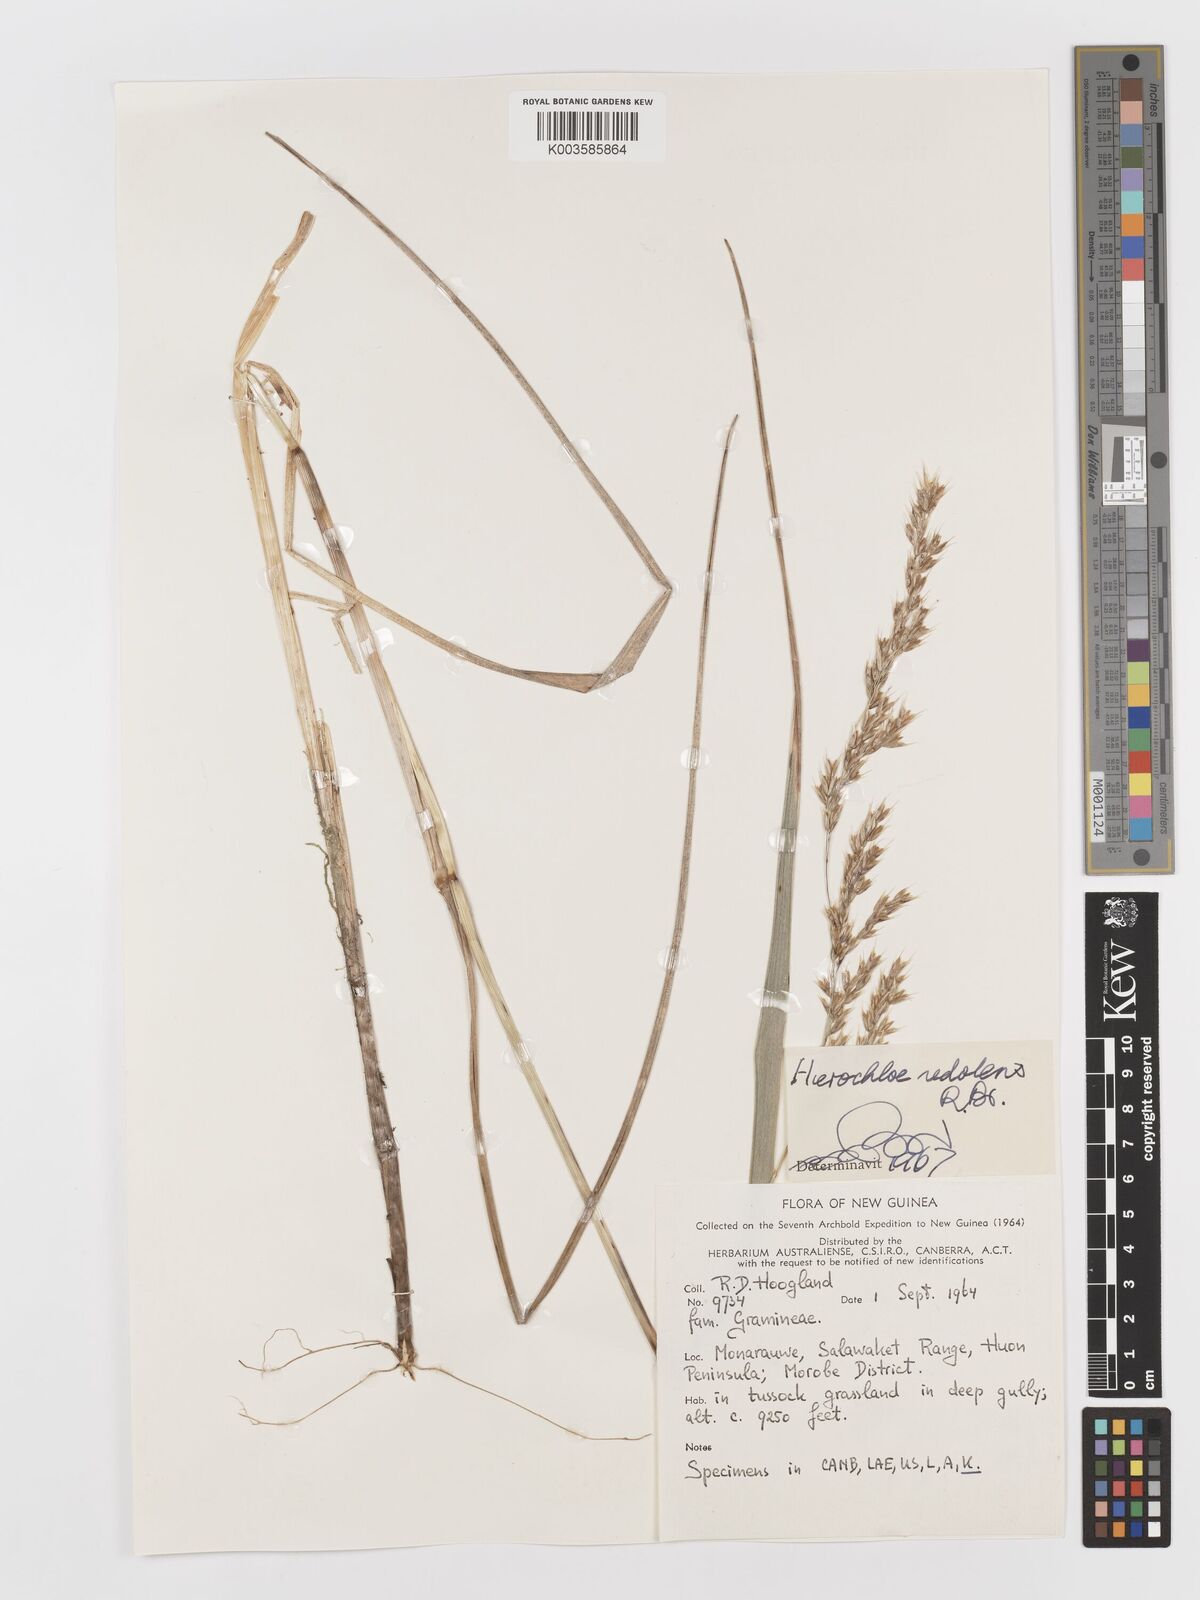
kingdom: Plantae
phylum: Tracheophyta
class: Liliopsida
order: Poales
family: Poaceae
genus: Anthoxanthum
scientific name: Anthoxanthum redolens
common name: Sweet holy grass
